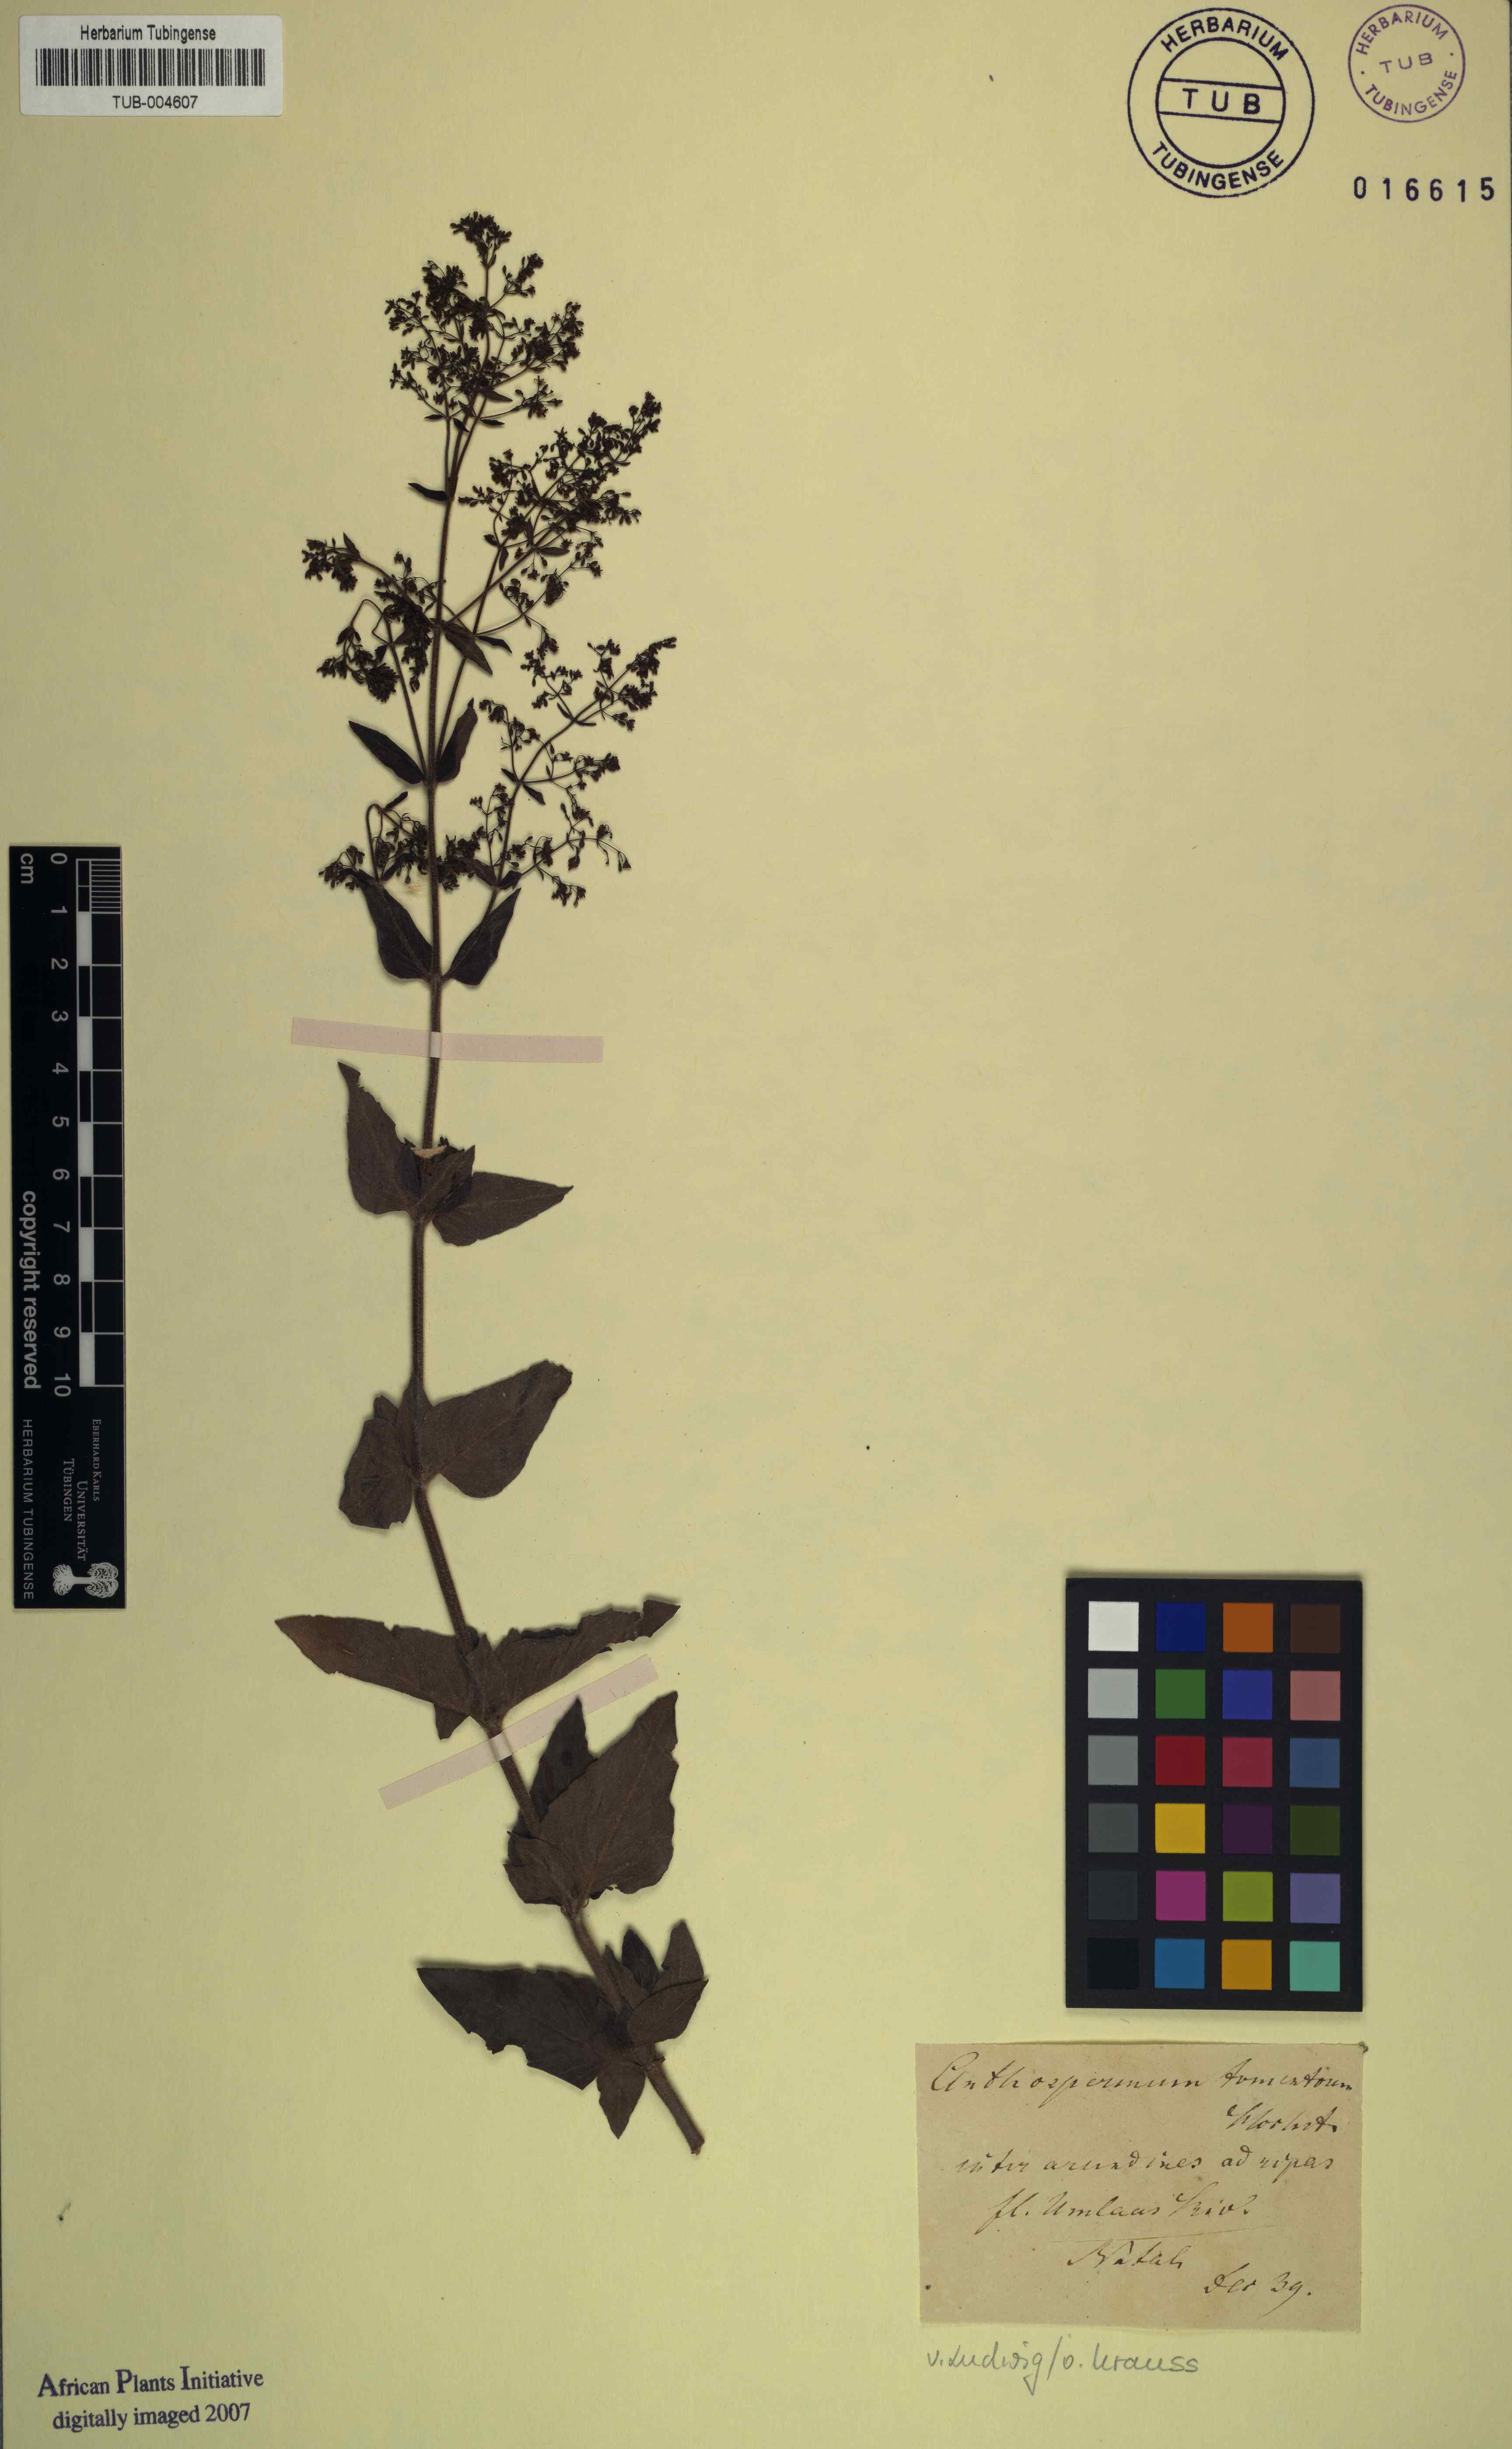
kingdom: Plantae
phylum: Tracheophyta
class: Magnoliopsida
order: Gentianales
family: Rubiaceae
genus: Anthospermum
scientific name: Anthospermum
